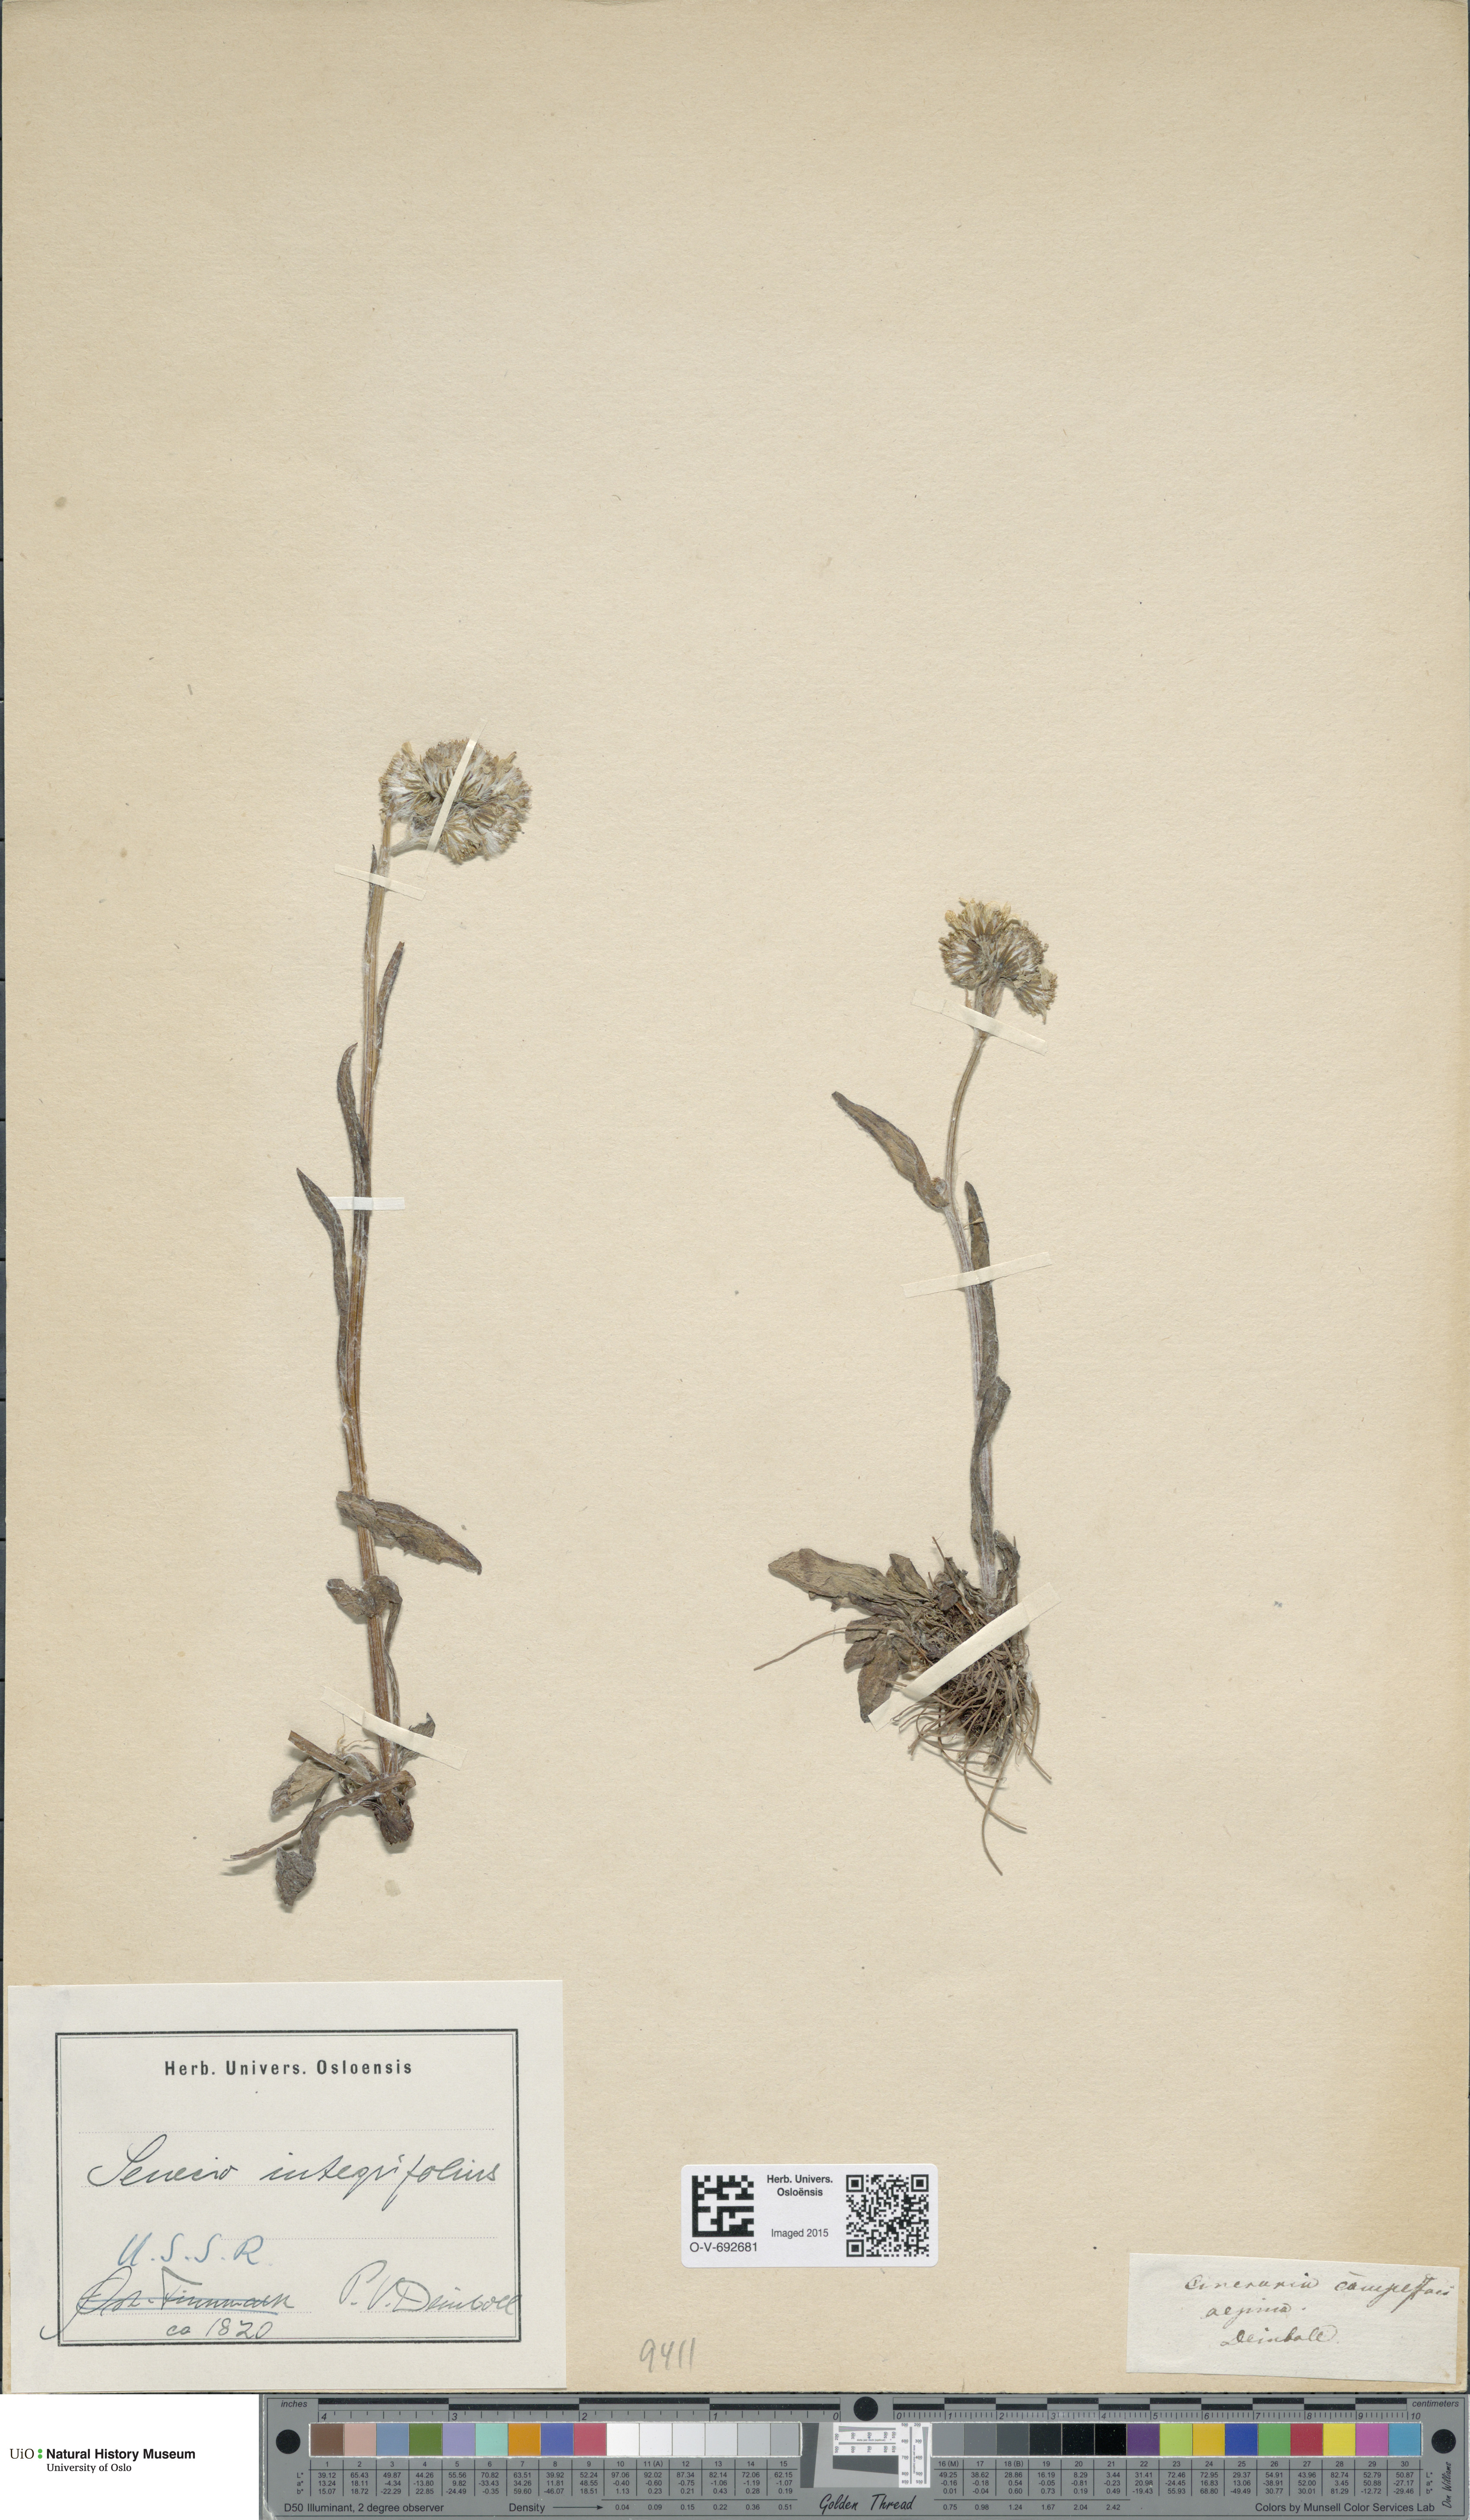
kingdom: Plantae
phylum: Tracheophyta
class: Magnoliopsida
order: Asterales
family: Asteraceae
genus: Tephroseris
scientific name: Tephroseris
